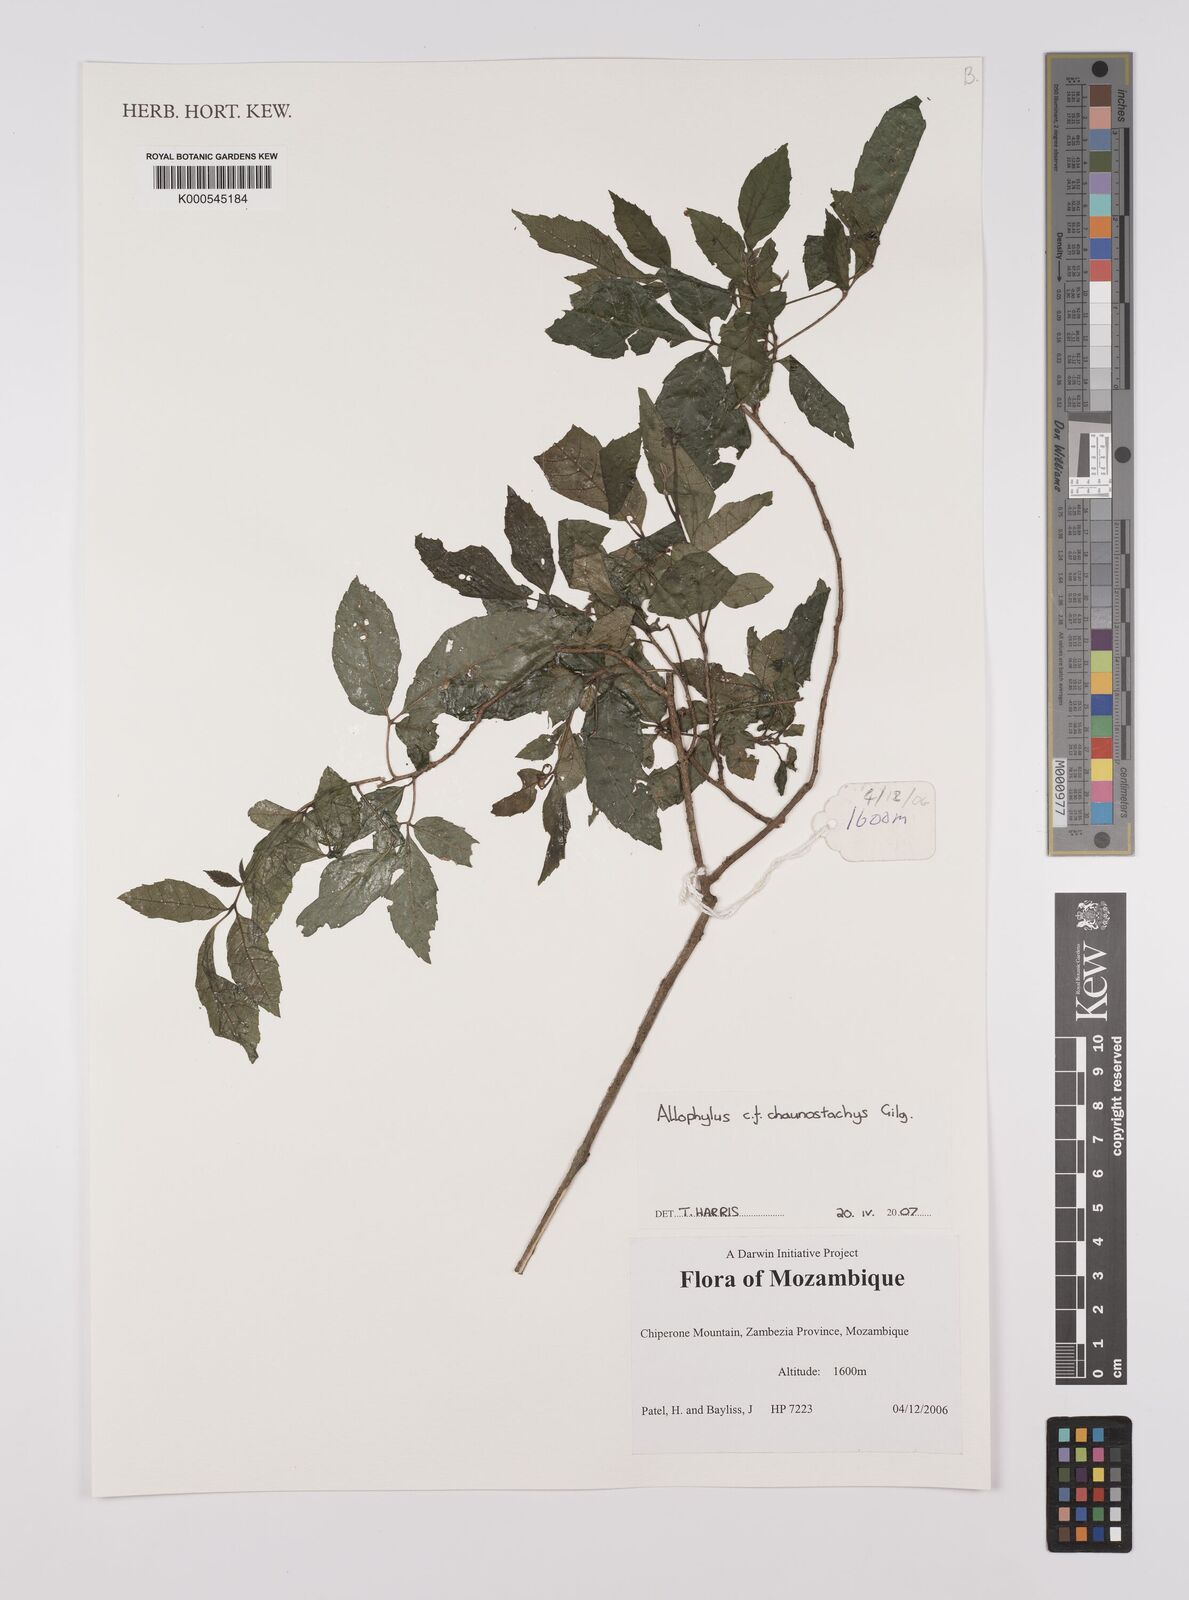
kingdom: Plantae
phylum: Tracheophyta
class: Magnoliopsida
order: Sapindales
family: Sapindaceae
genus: Allophylus
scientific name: Allophylus chaunostachys
